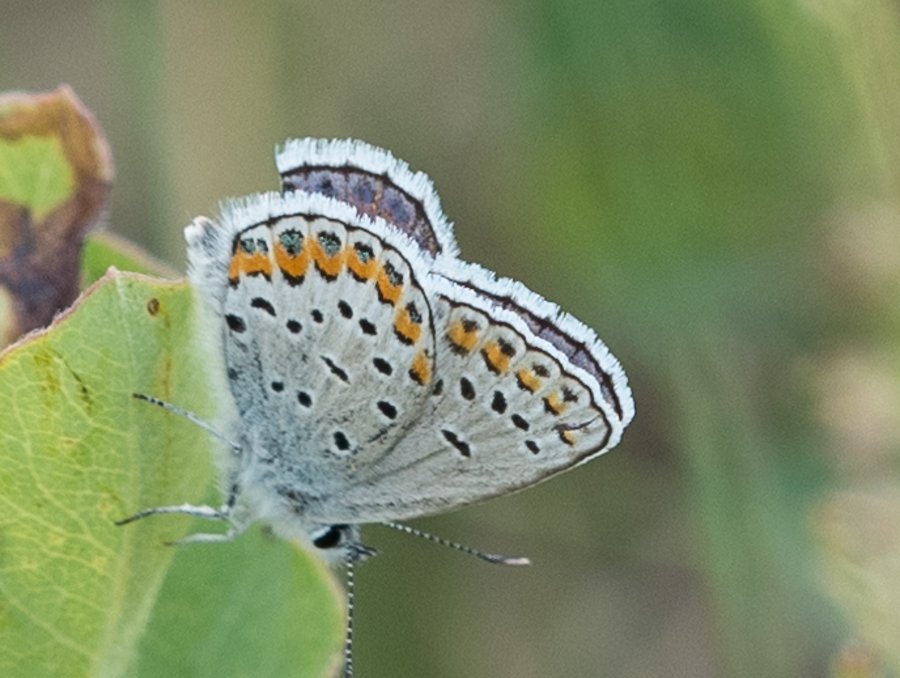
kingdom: Animalia
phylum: Arthropoda
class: Insecta
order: Lepidoptera
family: Lycaenidae
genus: Lycaeides
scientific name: Lycaeides melissa
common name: Melissa Blue
